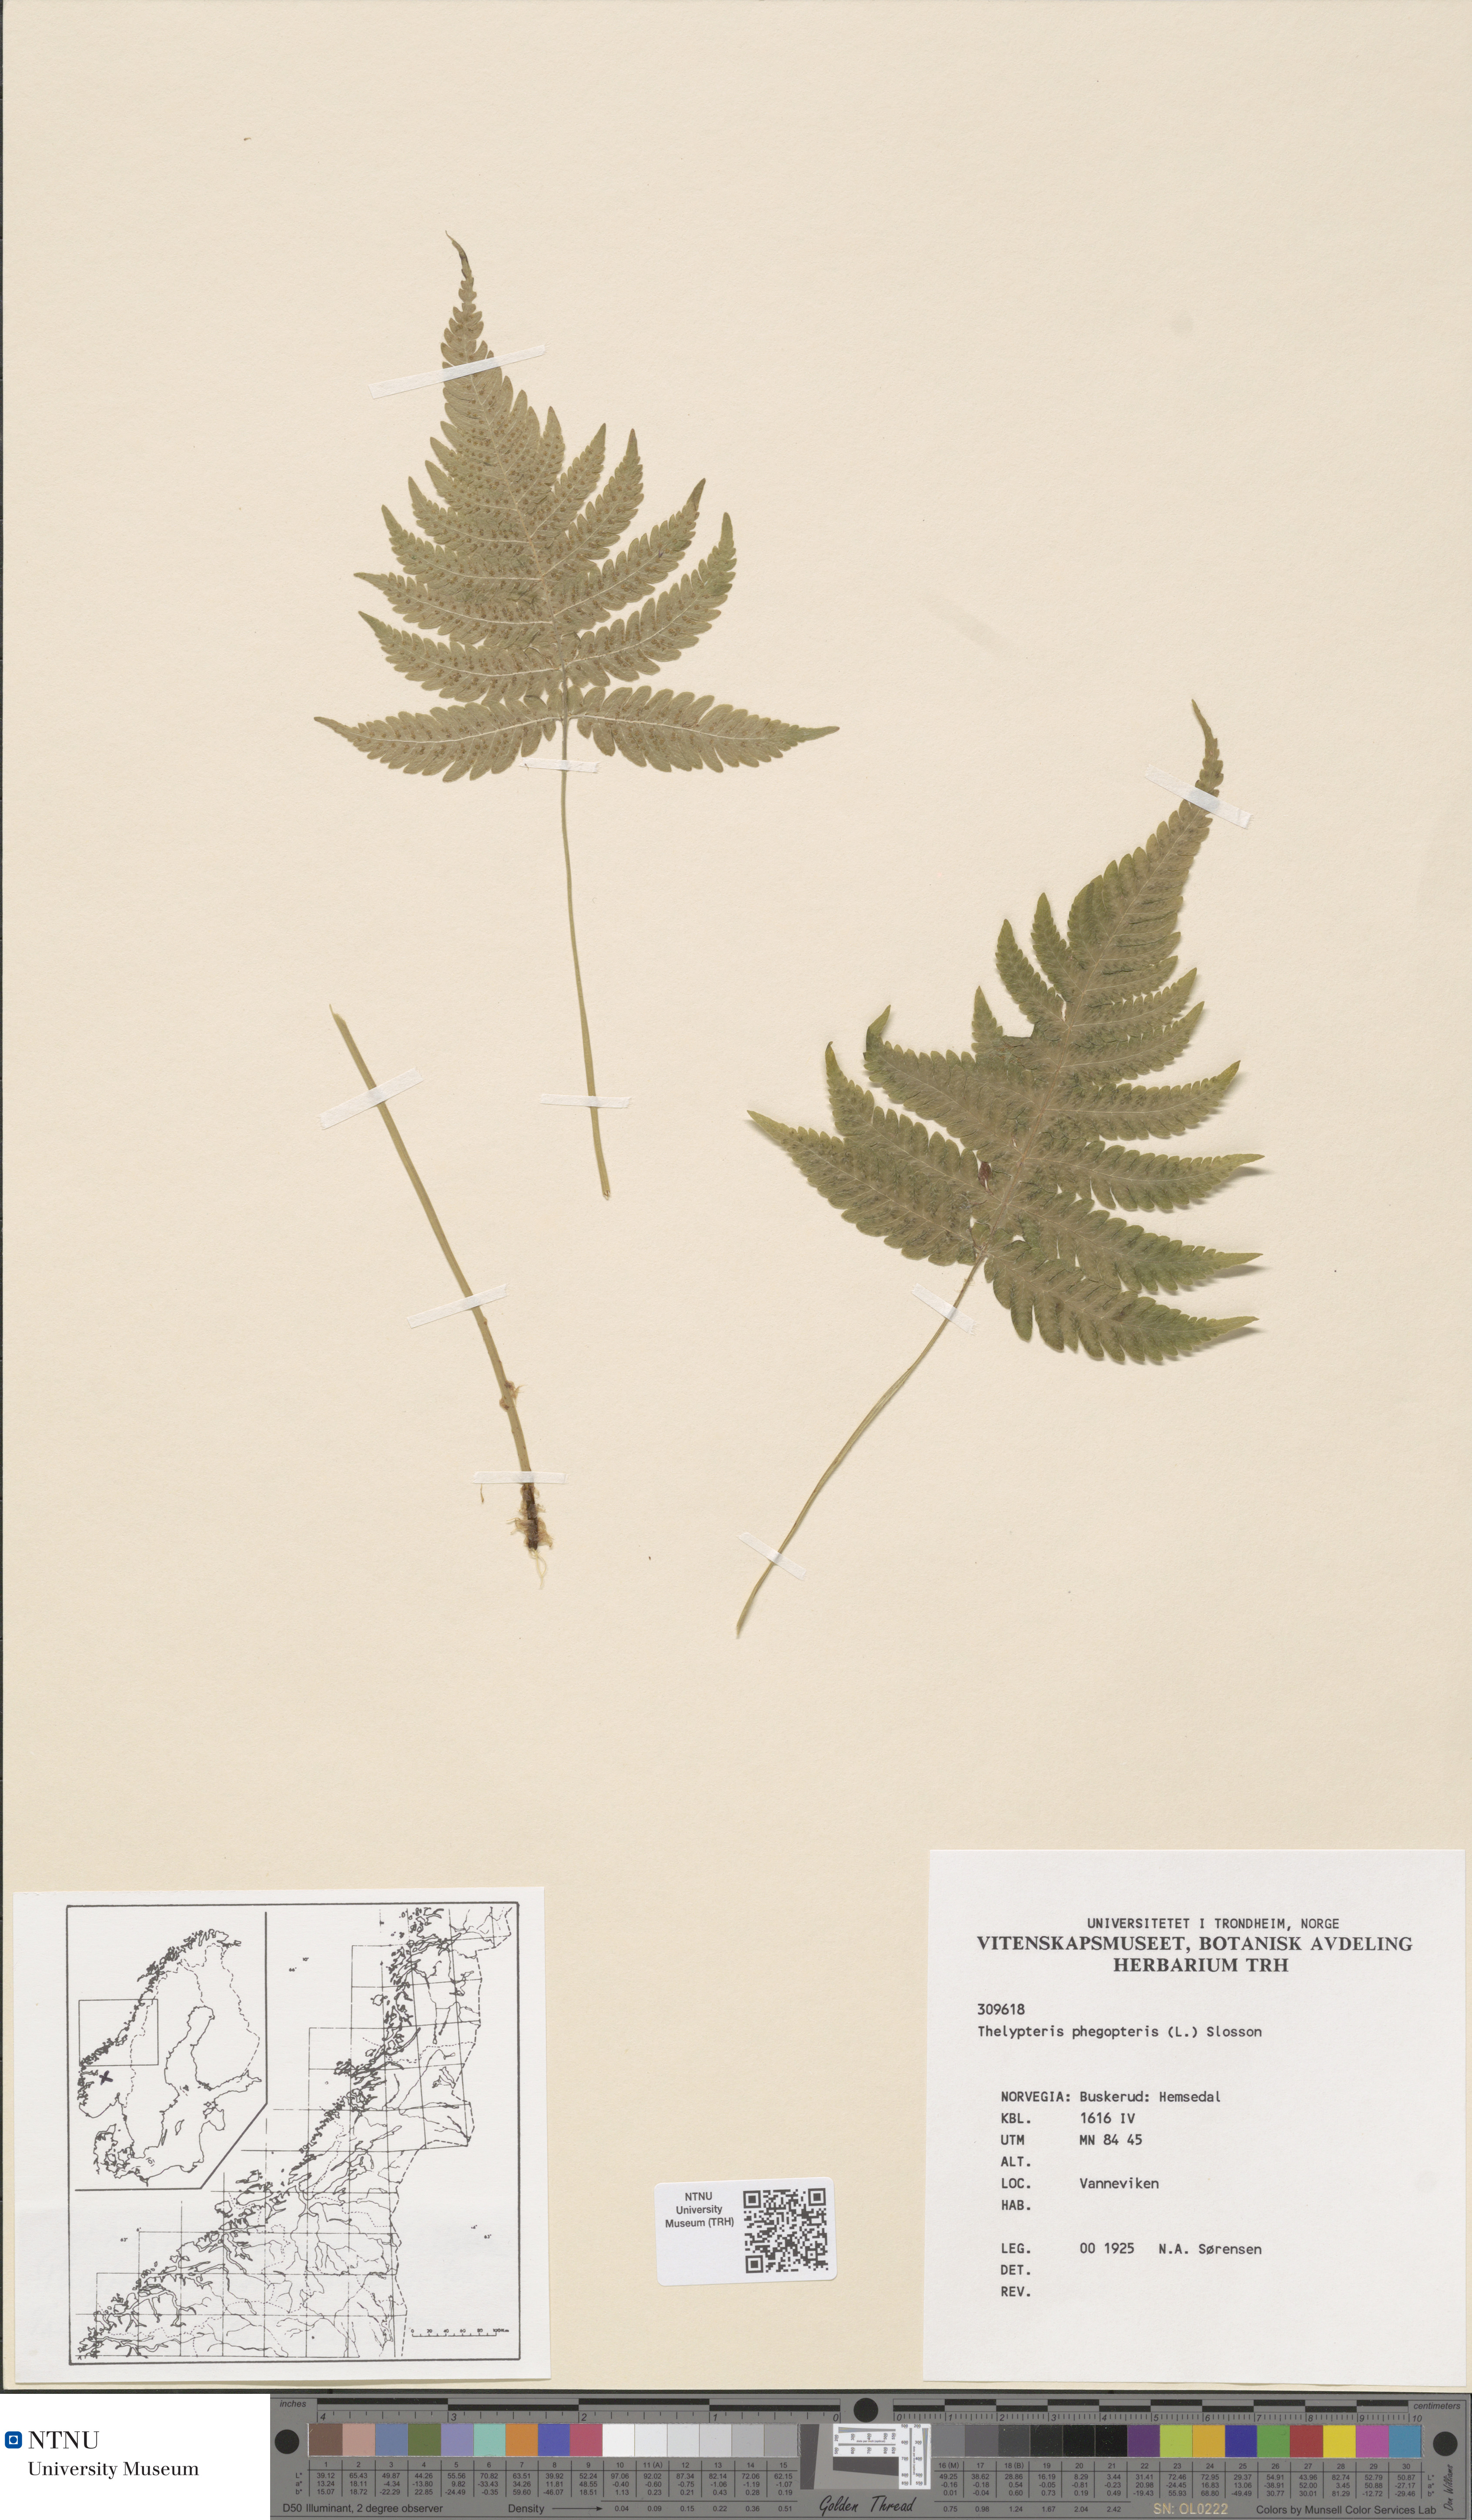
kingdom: Plantae
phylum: Tracheophyta
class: Polypodiopsida
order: Polypodiales
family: Thelypteridaceae
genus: Phegopteris
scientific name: Phegopteris connectilis
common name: Beech fern
